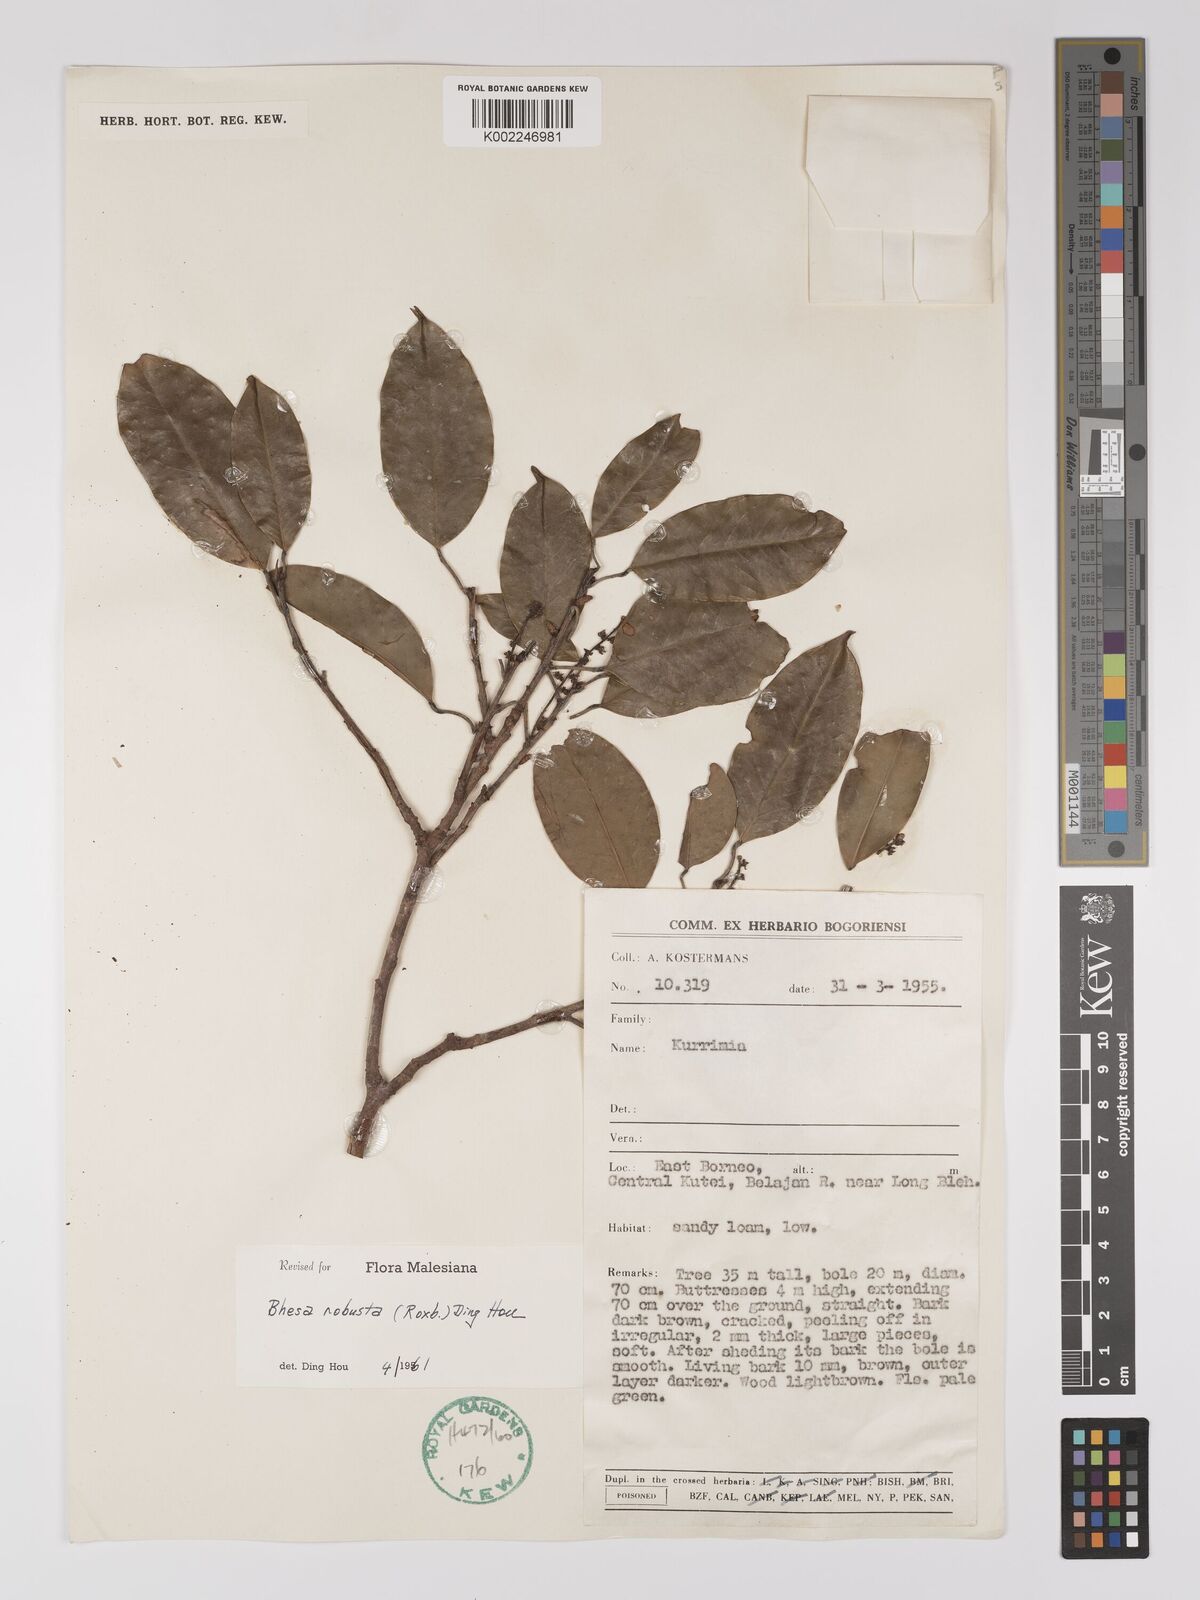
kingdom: Plantae
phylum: Tracheophyta
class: Magnoliopsida
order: Malpighiales
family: Centroplacaceae
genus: Bhesa
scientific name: Bhesa robusta
